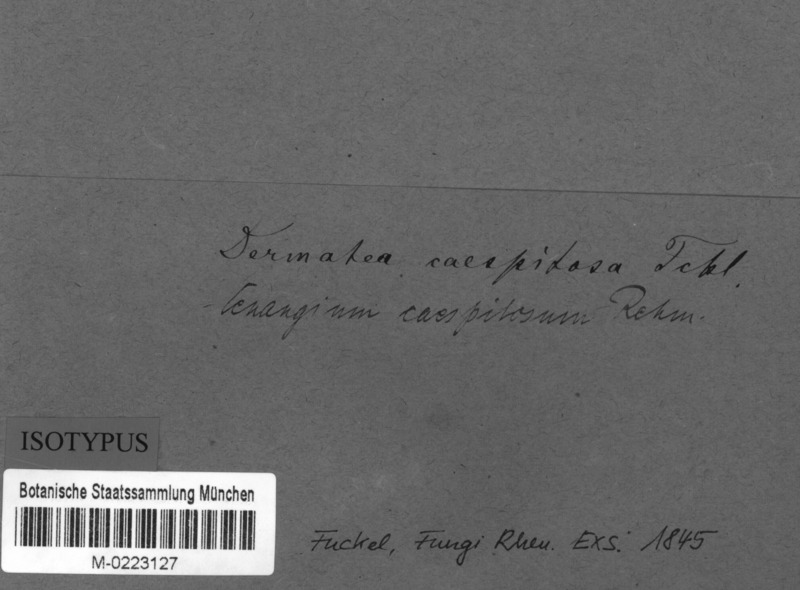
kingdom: Fungi
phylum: Ascomycota
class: Leotiomycetes
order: Helotiales
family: Cenangiaceae
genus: Cenangium
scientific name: Cenangium
